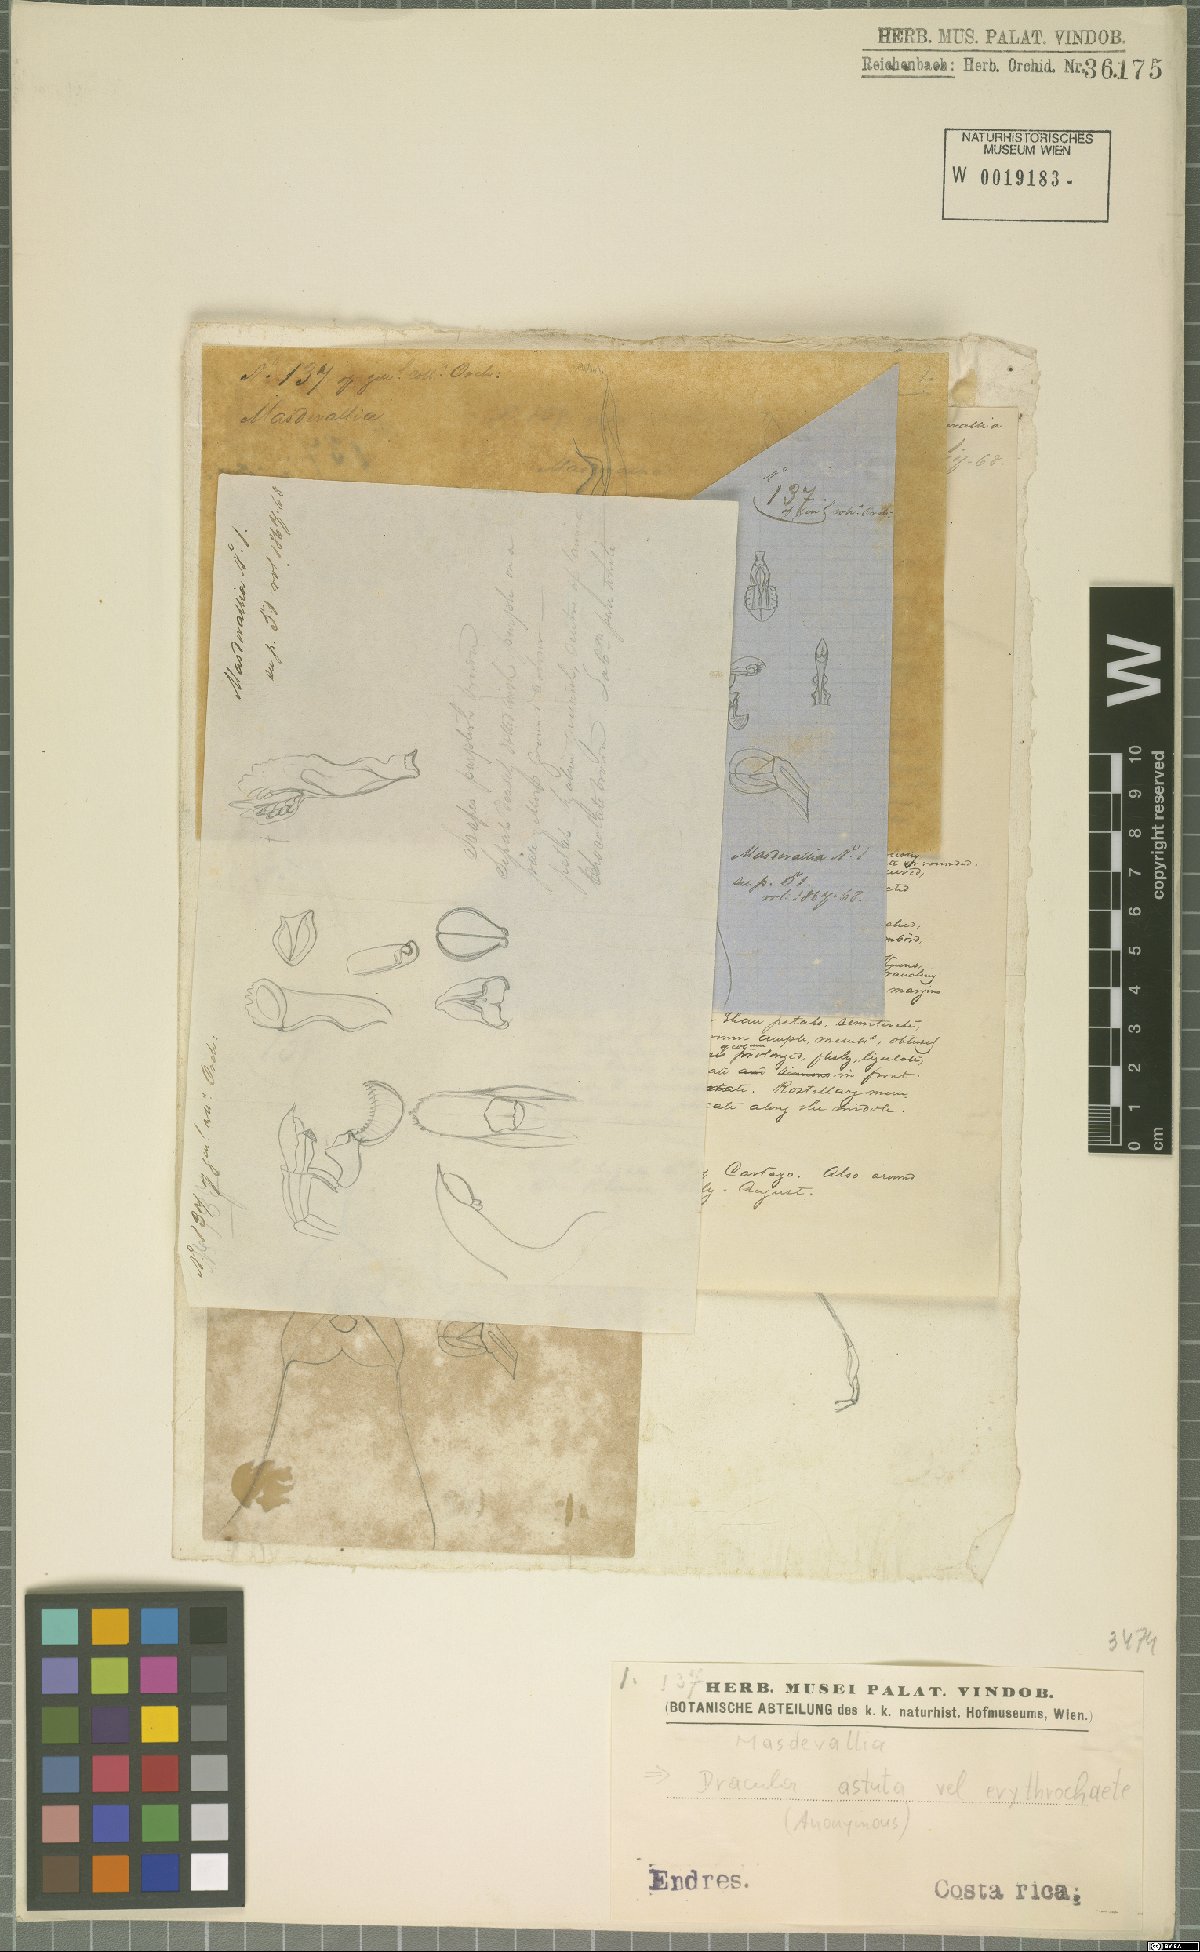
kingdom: Plantae
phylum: Tracheophyta
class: Liliopsida
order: Asparagales
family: Orchidaceae
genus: Dracula
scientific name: Dracula astuta
